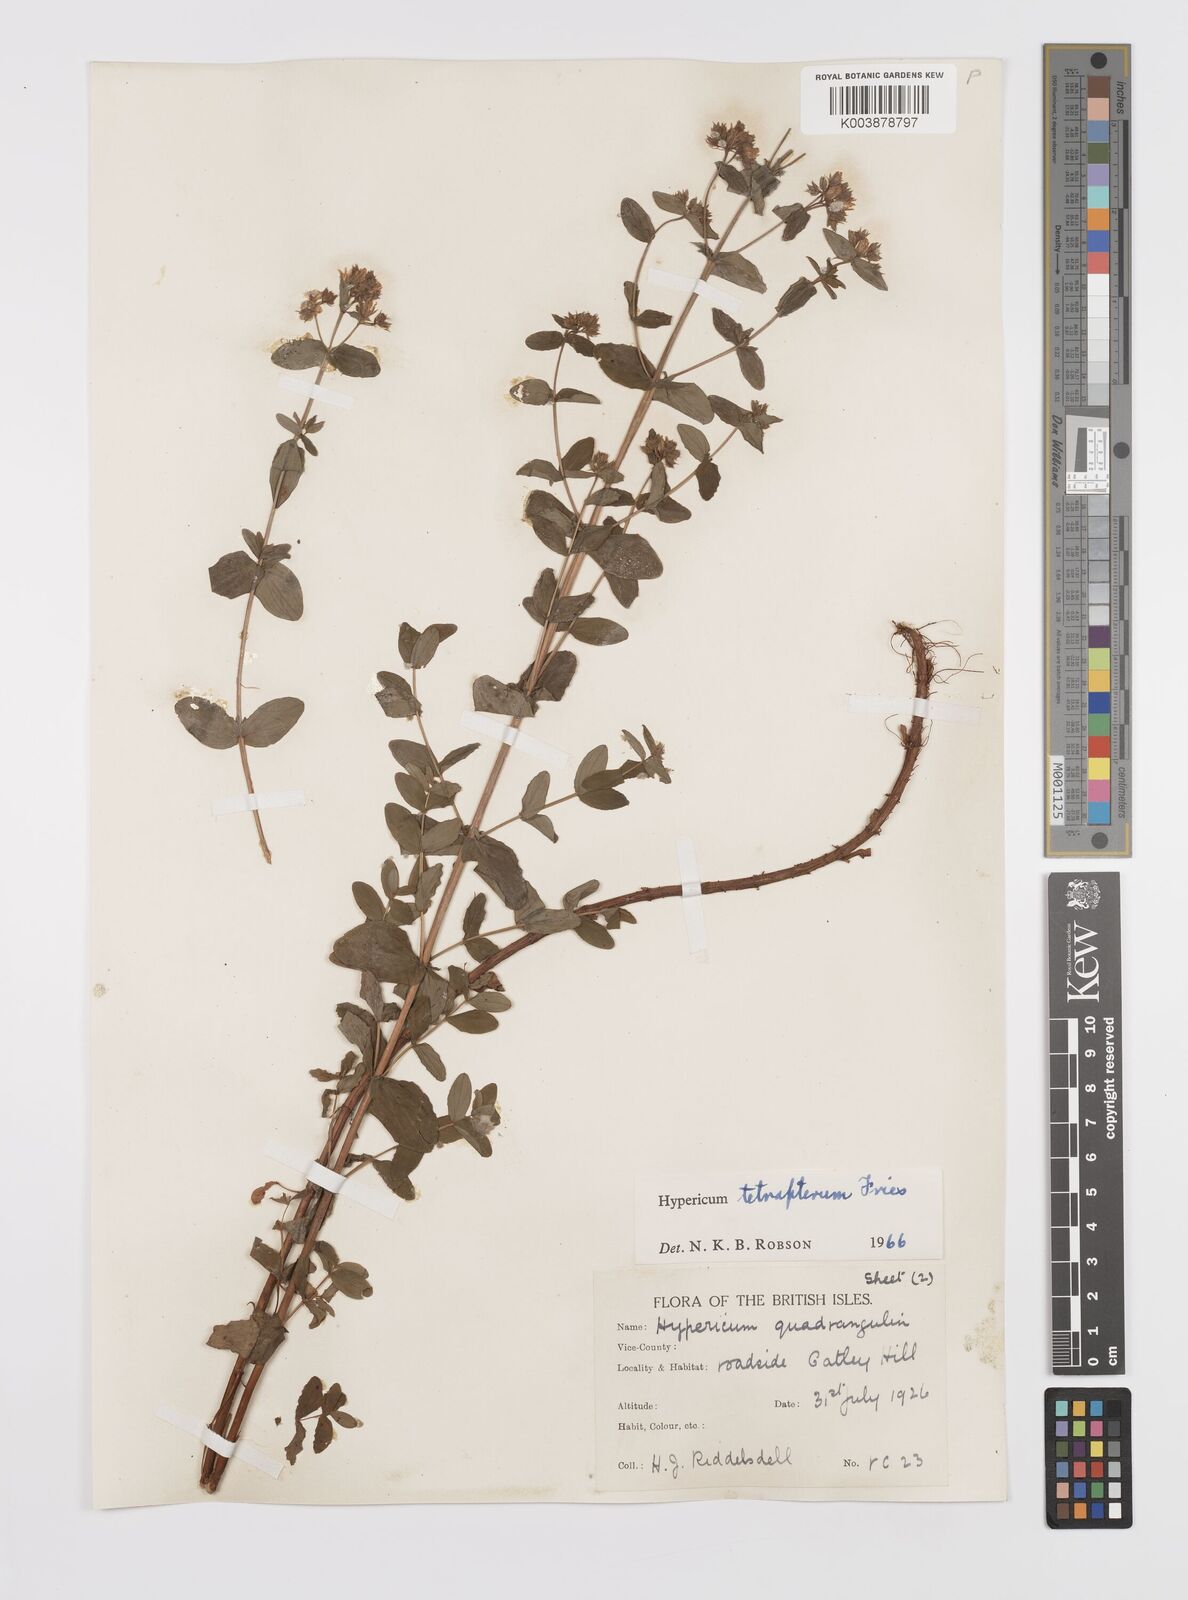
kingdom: Plantae
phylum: Tracheophyta
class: Magnoliopsida
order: Malpighiales
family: Hypericaceae
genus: Hypericum
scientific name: Hypericum tetrapterum
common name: Square-stalked st. john's-wort
